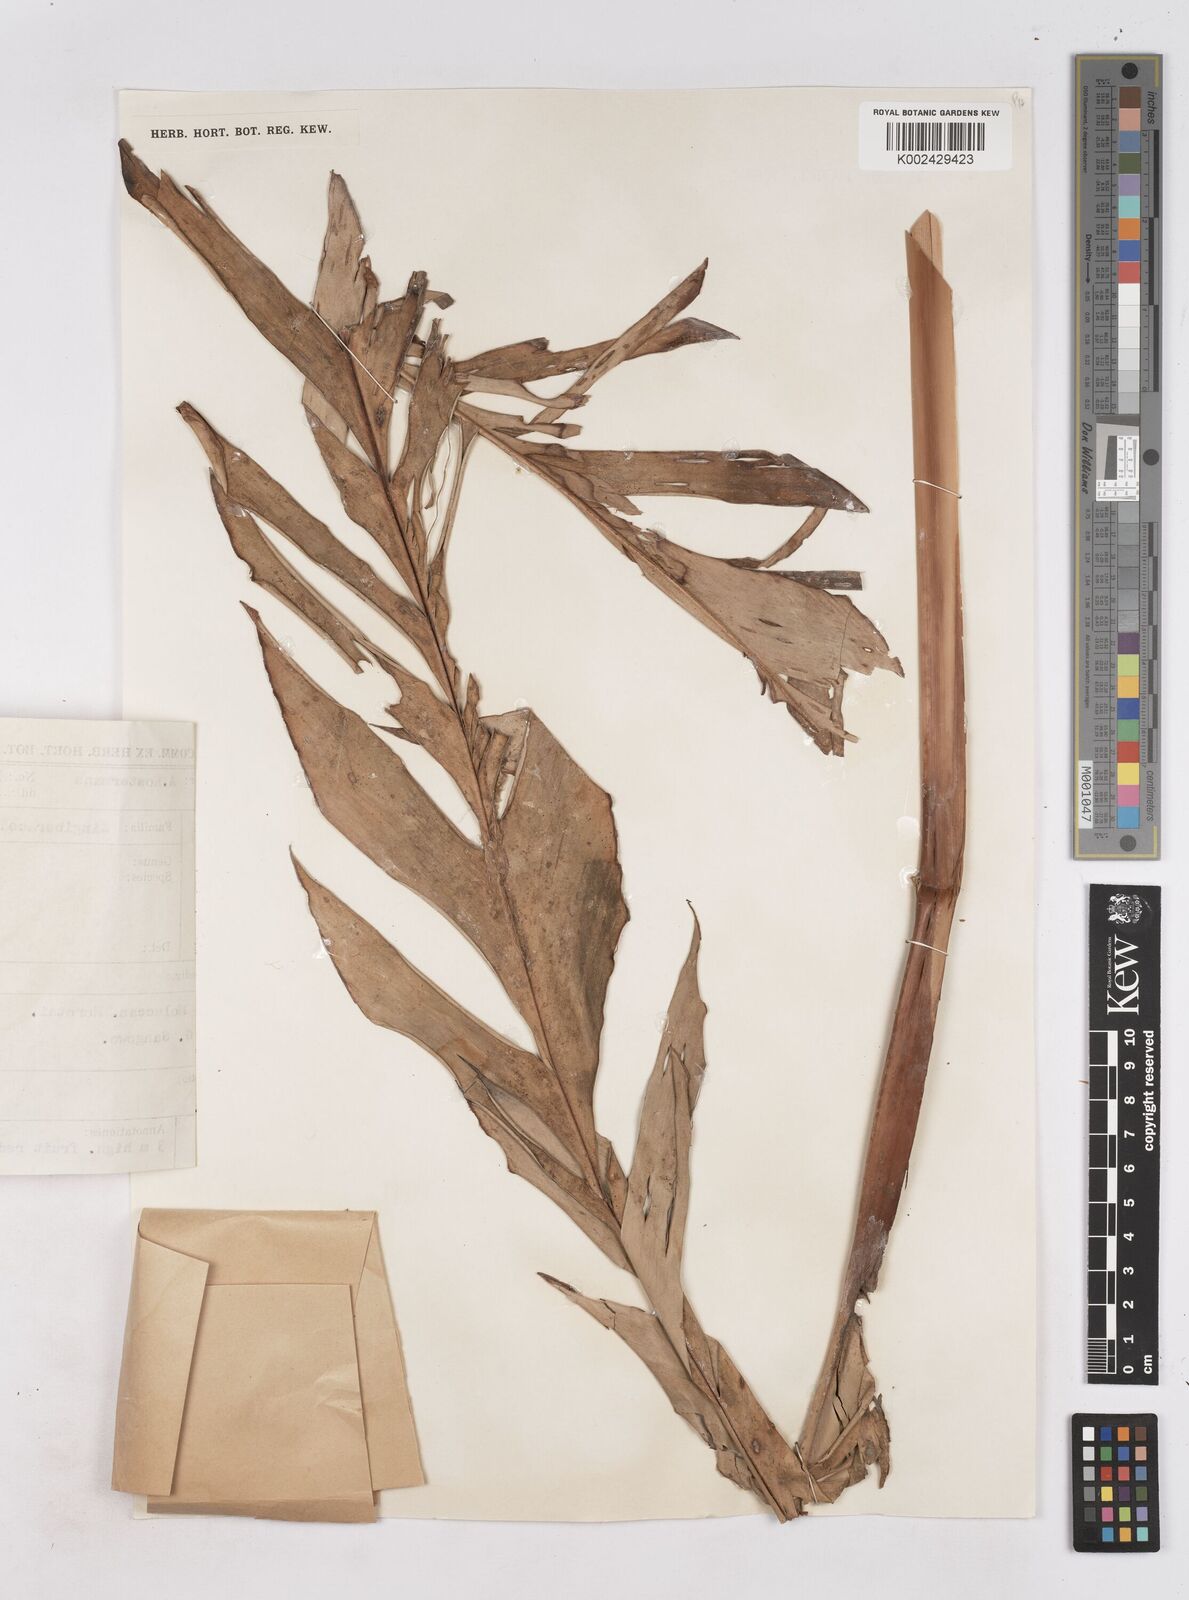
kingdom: Plantae
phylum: Tracheophyta
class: Liliopsida
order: Zingiberales
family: Zingiberaceae
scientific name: Zingiberaceae
